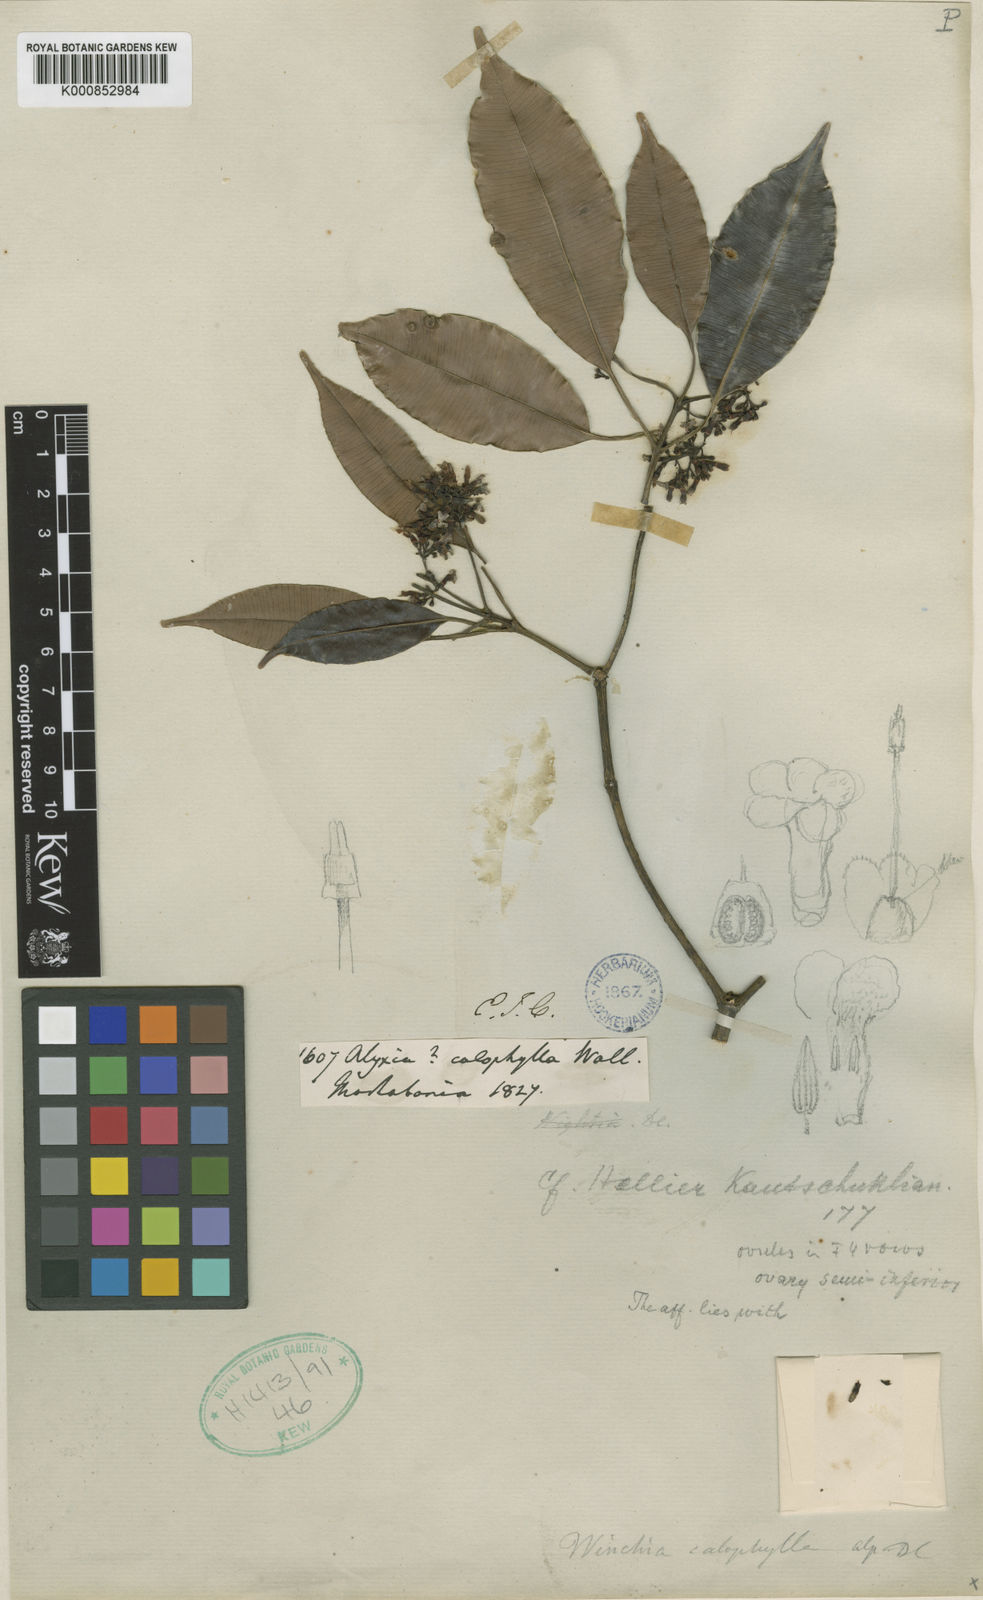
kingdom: Plantae
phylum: Tracheophyta
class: Magnoliopsida
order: Gentianales
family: Apocynaceae
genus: Alstonia
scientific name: Alstonia rostrata
